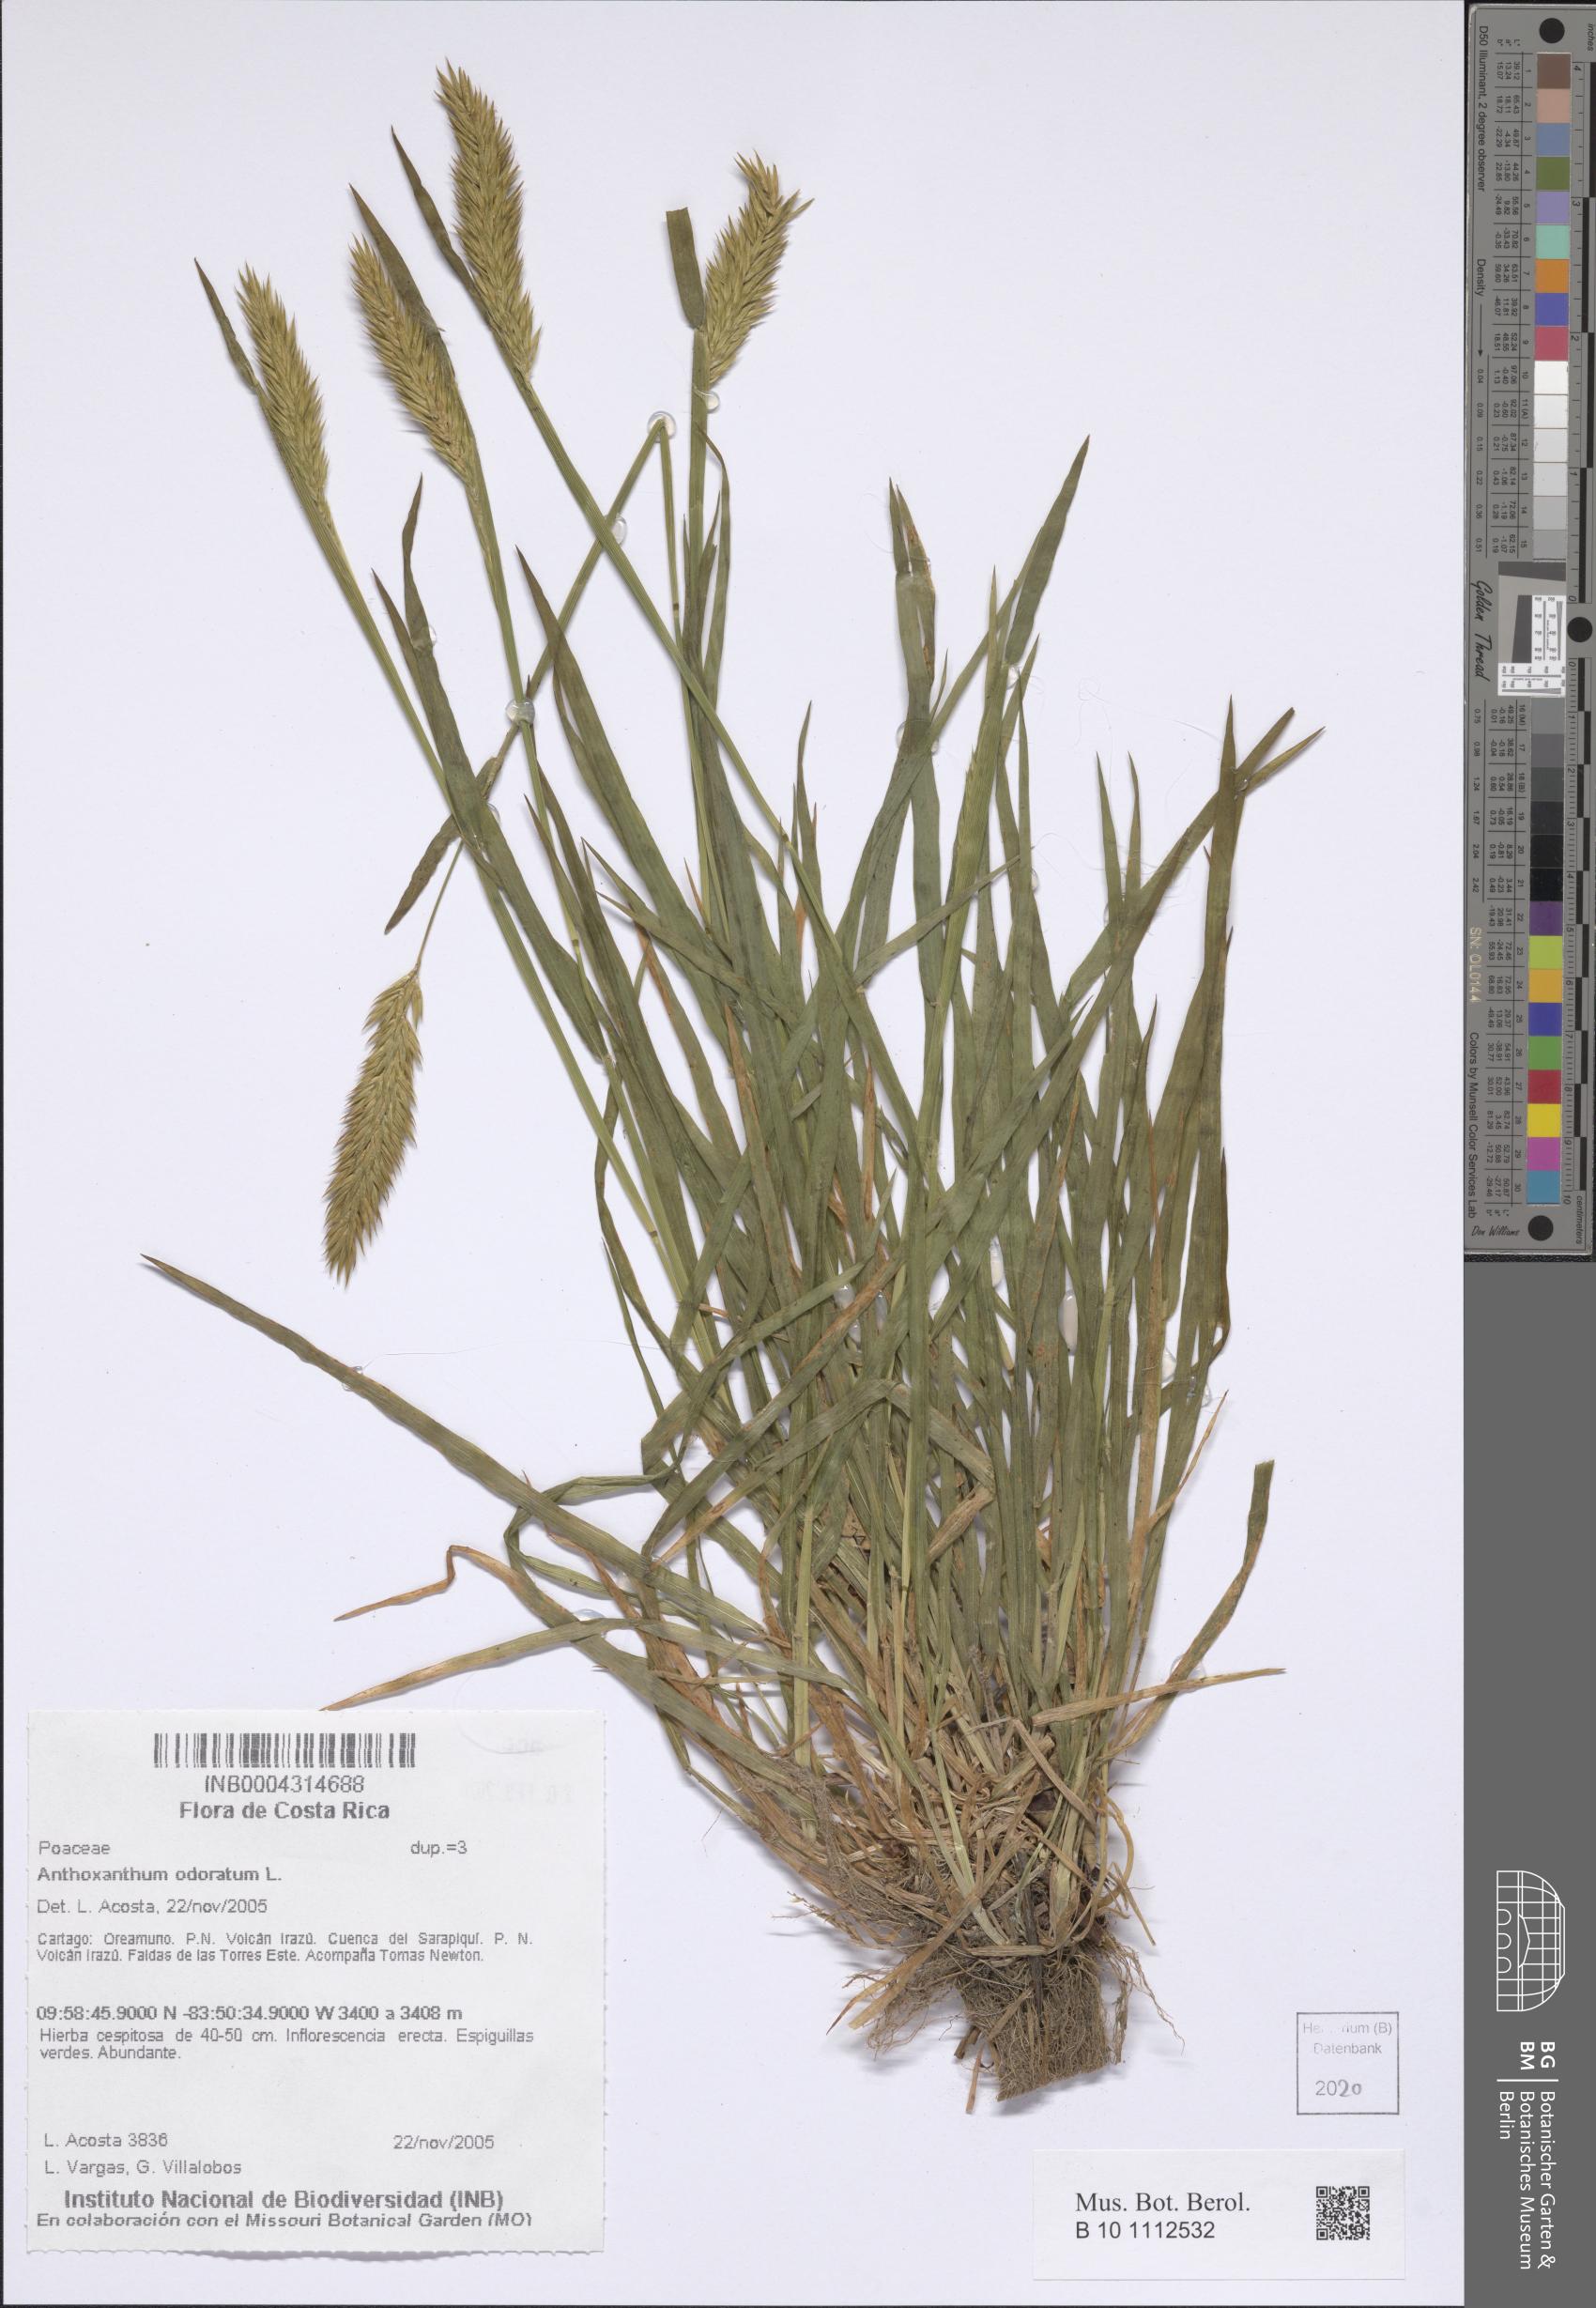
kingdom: Plantae
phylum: Tracheophyta
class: Liliopsida
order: Poales
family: Poaceae
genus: Anthoxanthum
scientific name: Anthoxanthum odoratum
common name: Sweet vernalgrass
